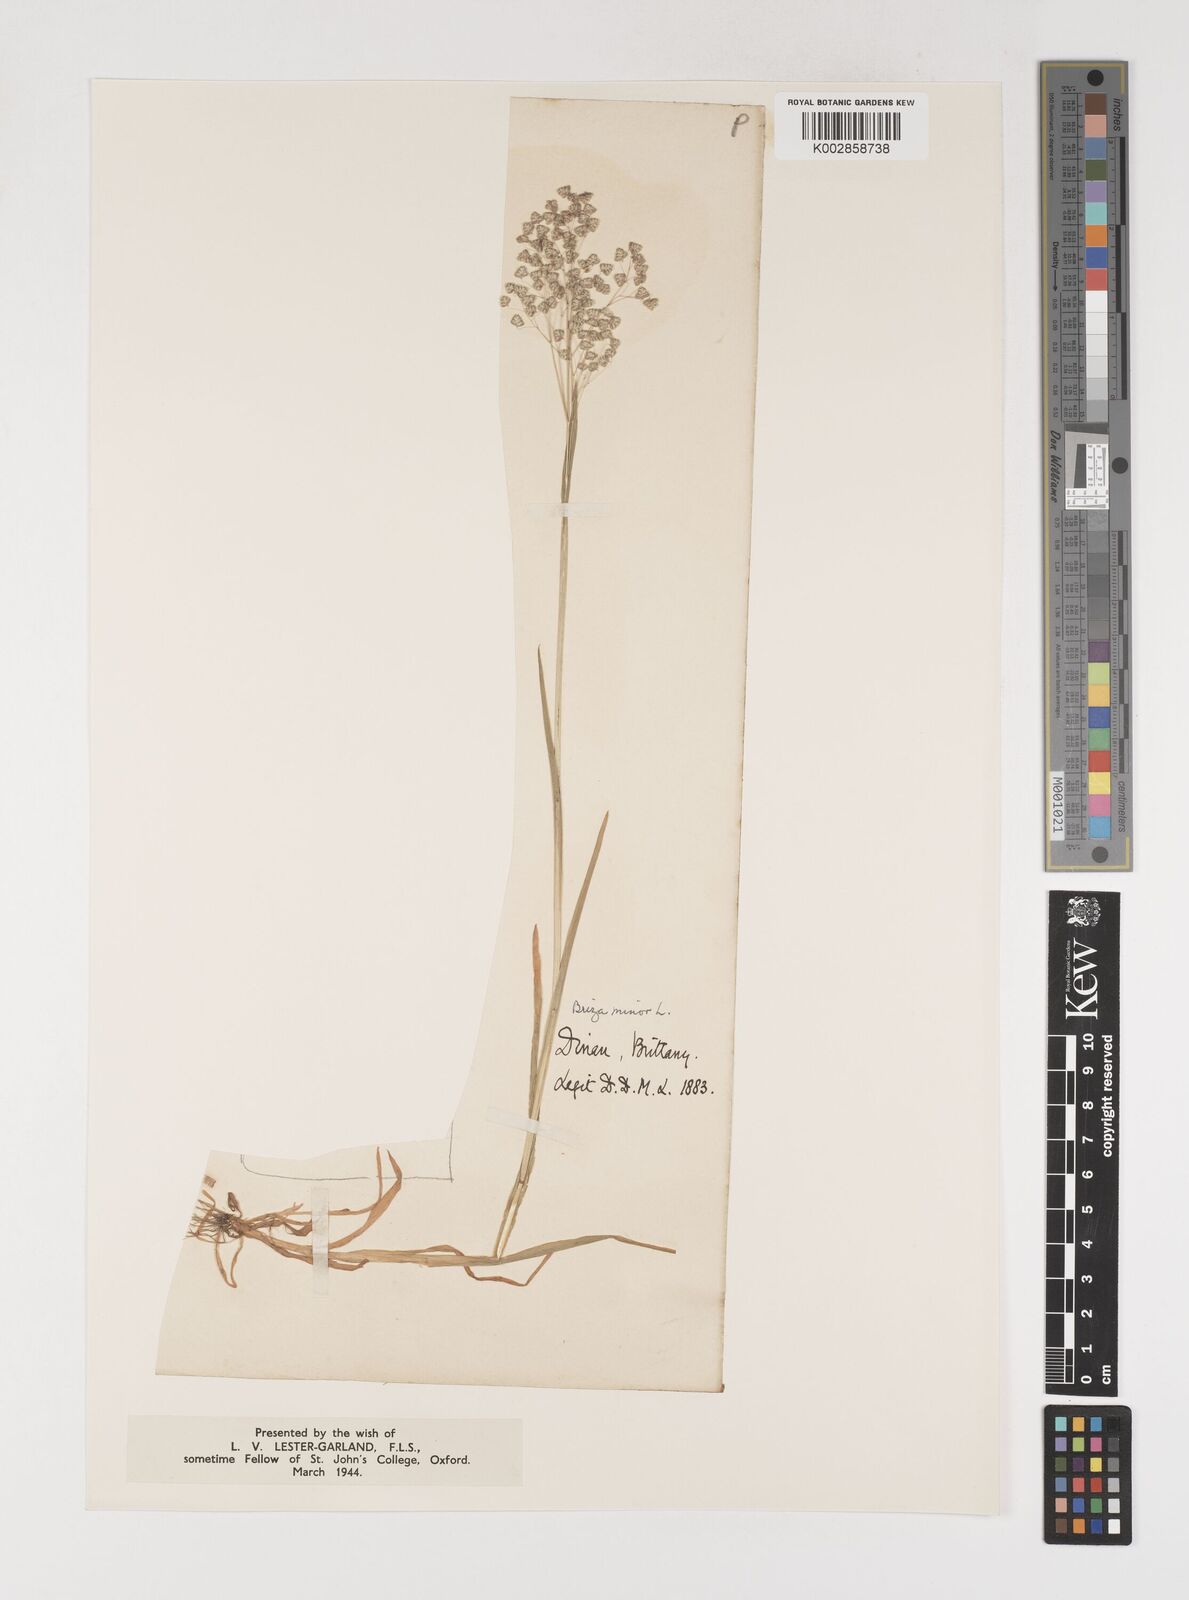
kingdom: Plantae
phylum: Tracheophyta
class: Liliopsida
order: Poales
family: Poaceae
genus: Briza
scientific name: Briza minor
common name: Lesser quaking-grass
